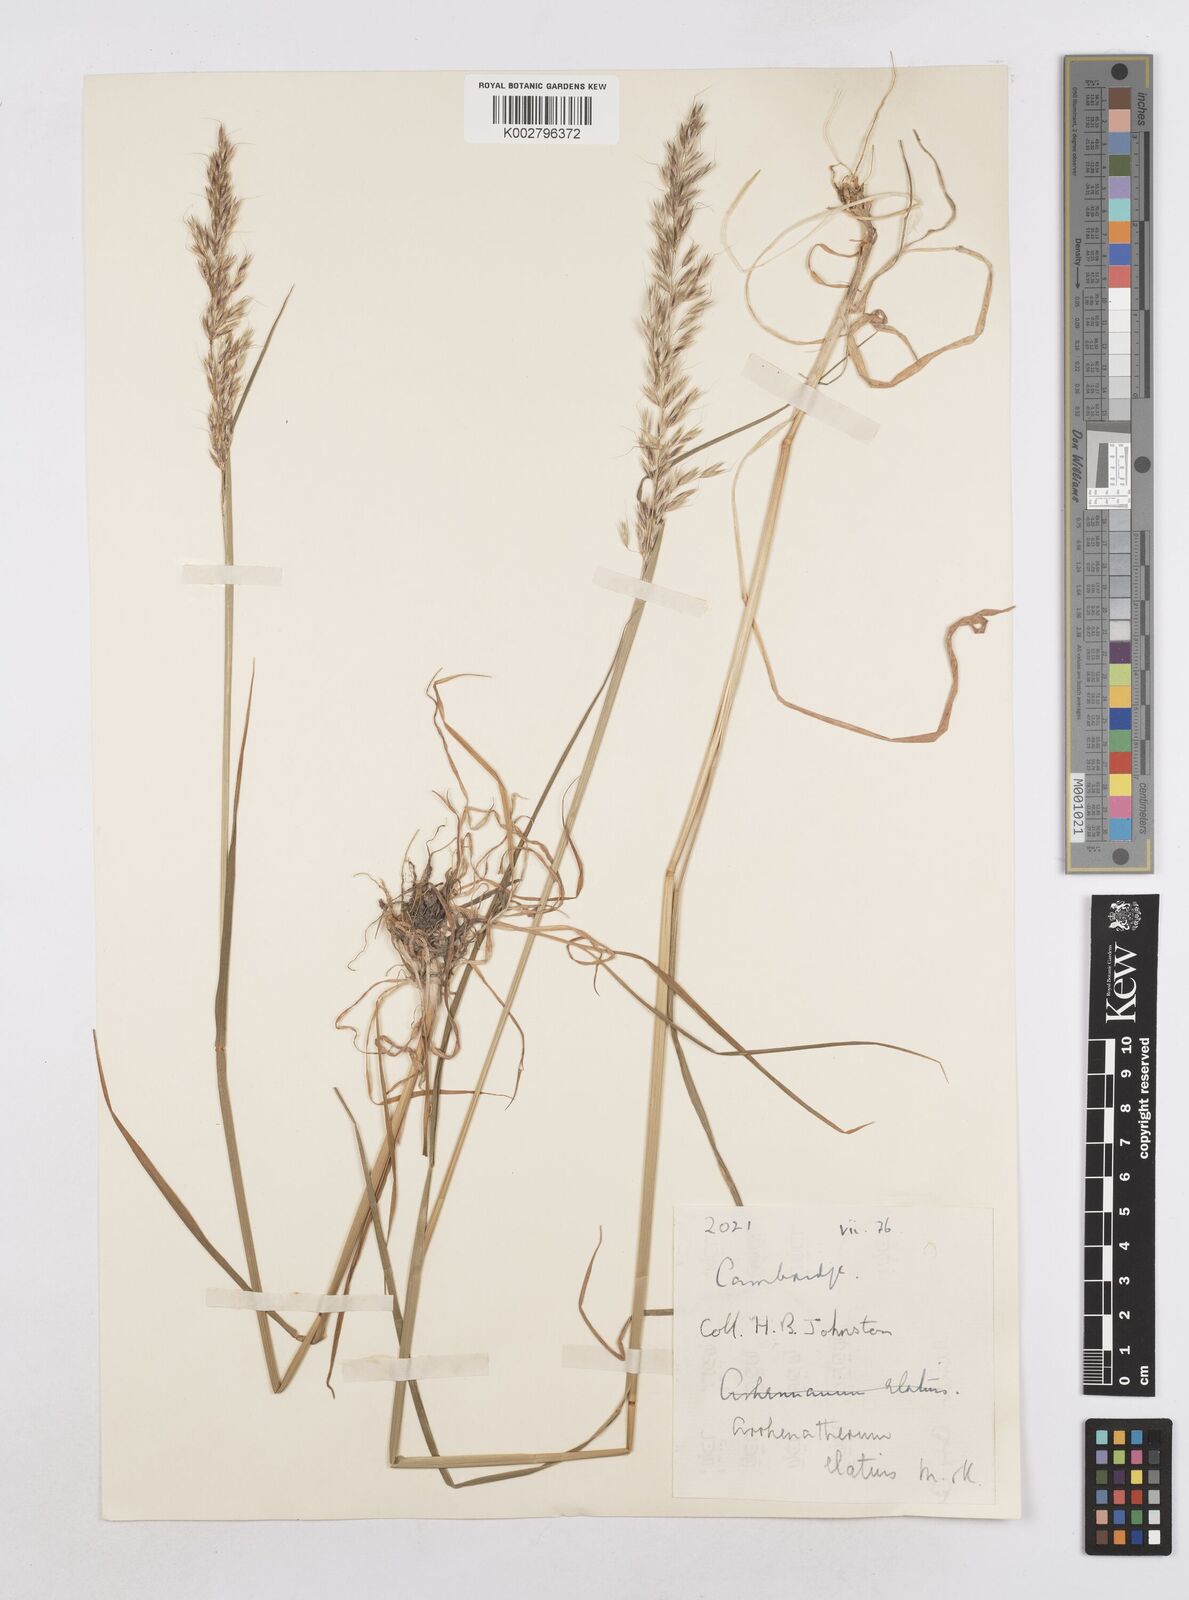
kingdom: Plantae
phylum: Tracheophyta
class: Liliopsida
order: Poales
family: Poaceae
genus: Arrhenatherum
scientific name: Arrhenatherum elatius
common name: Tall oatgrass
